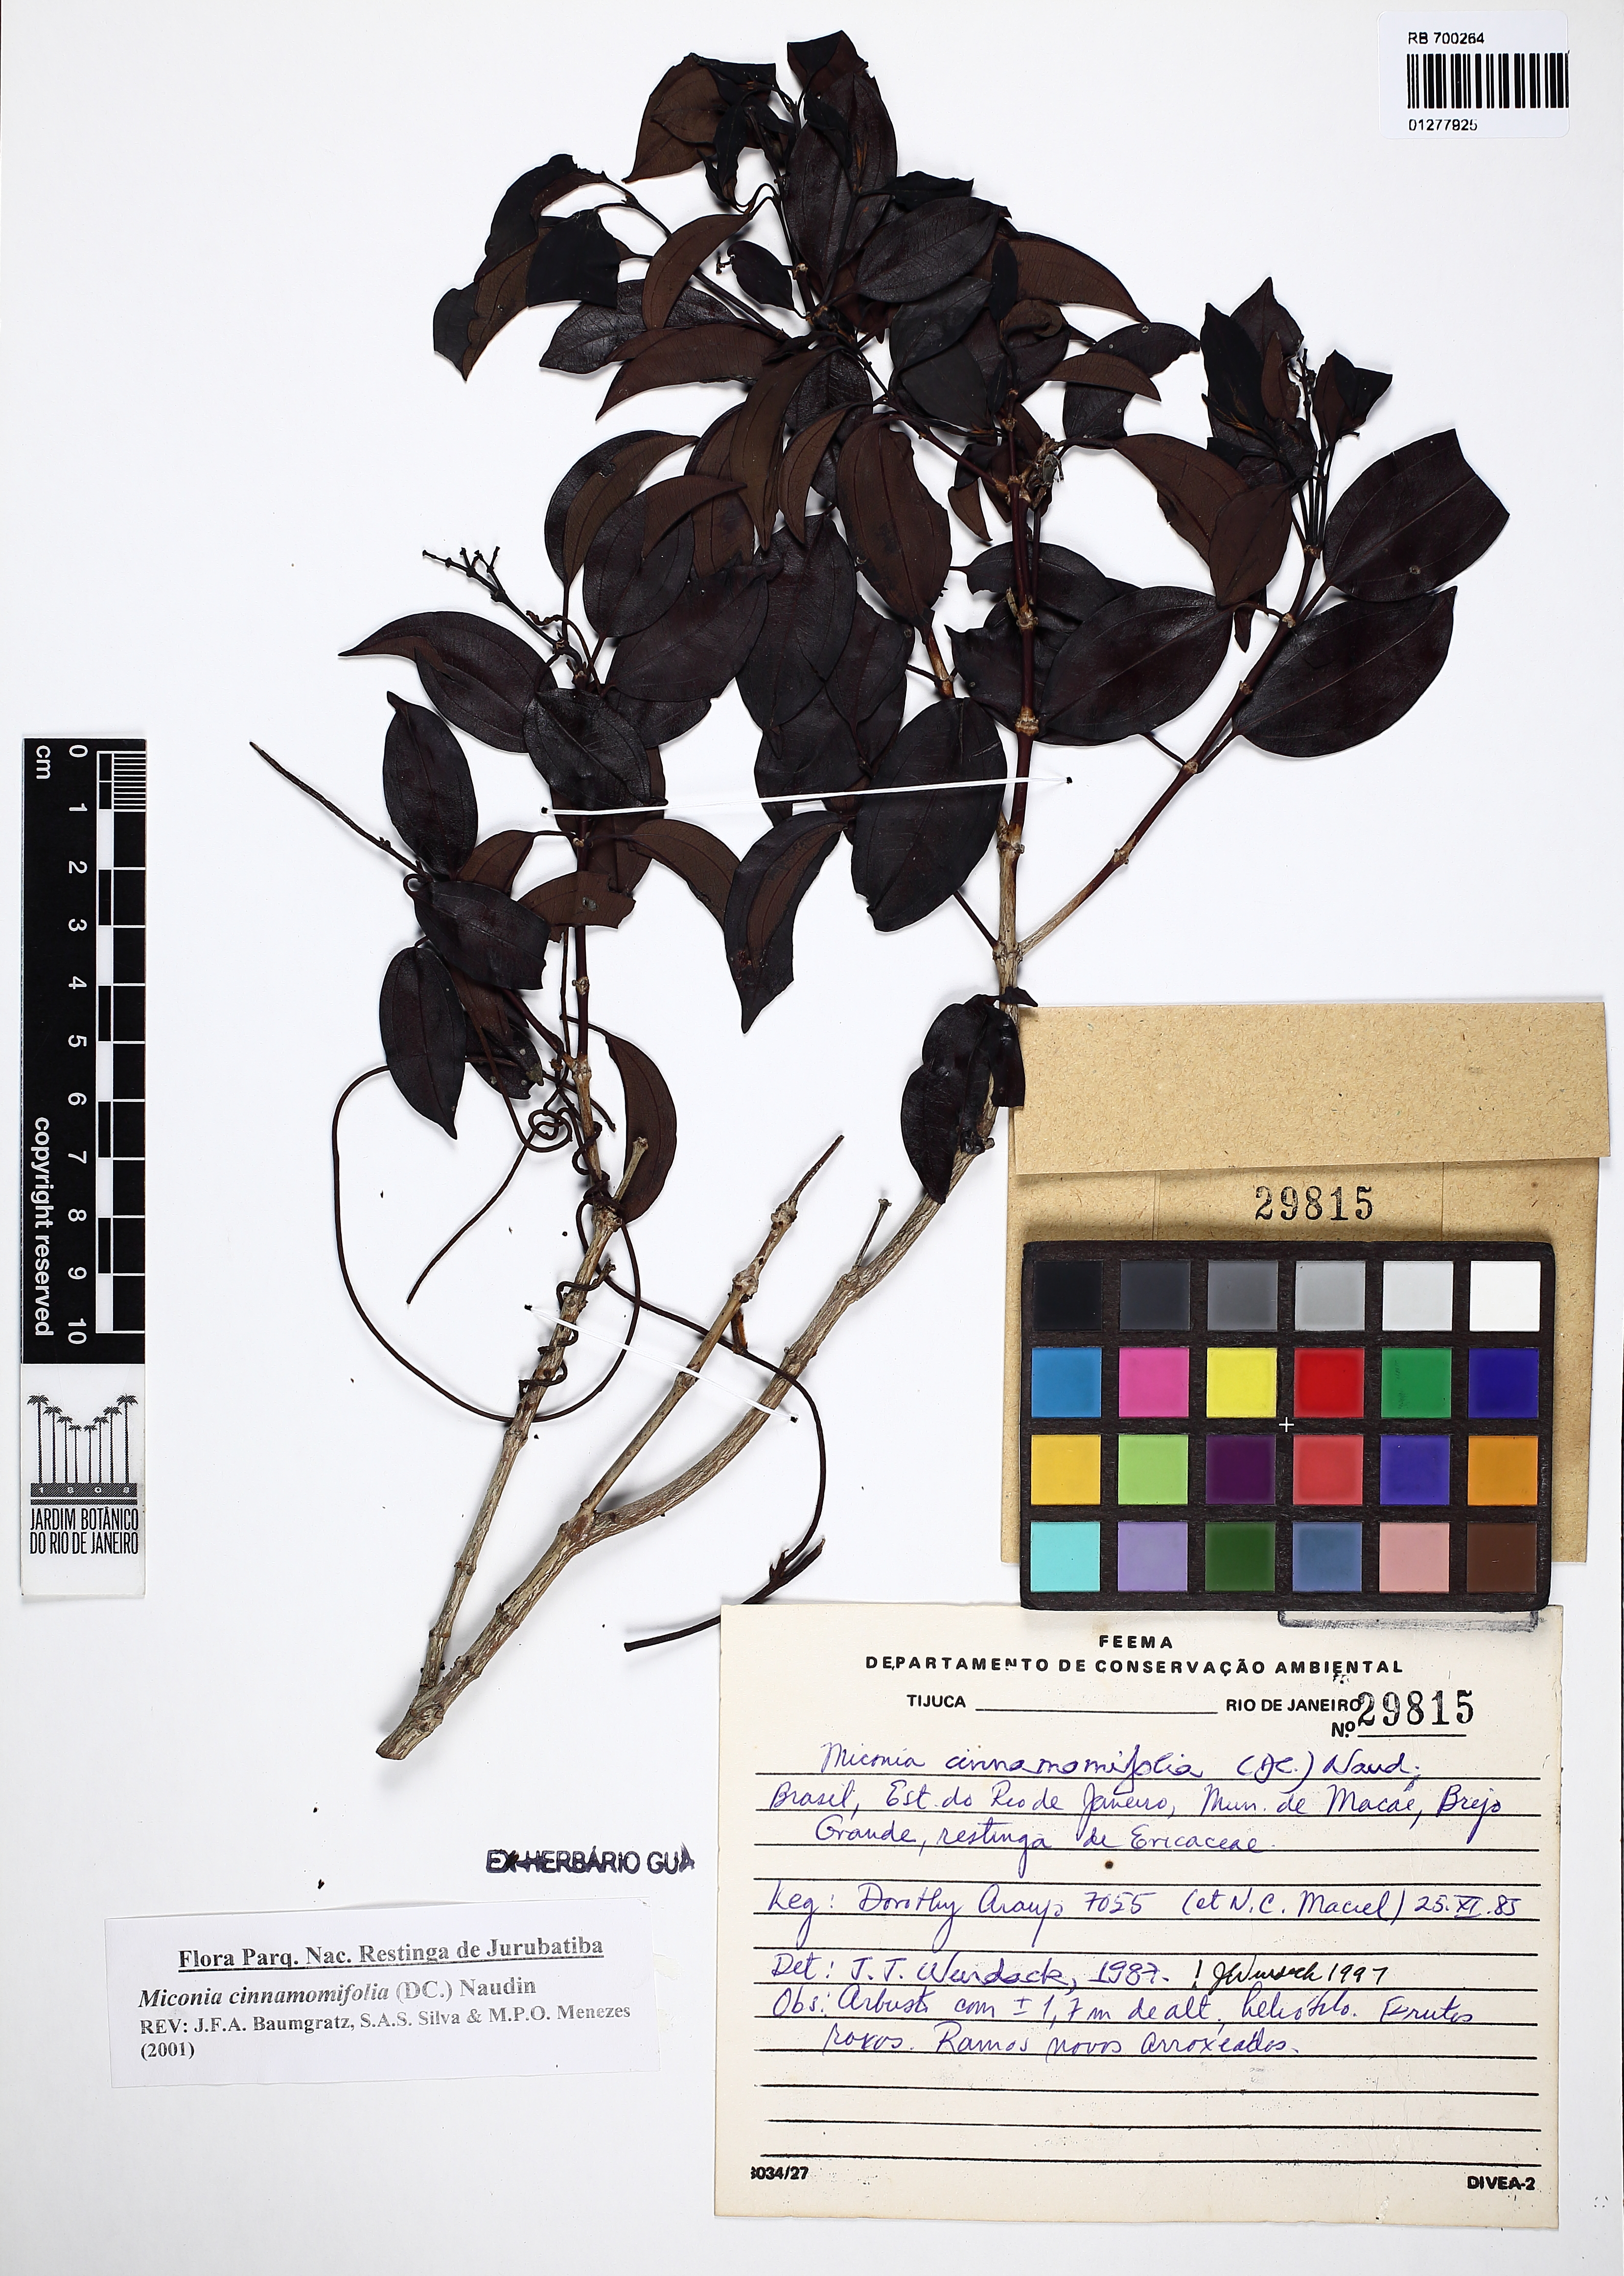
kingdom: Plantae
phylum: Tracheophyta
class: Magnoliopsida
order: Myrtales
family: Melastomataceae
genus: Miconia
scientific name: Miconia cinnamomifolia
